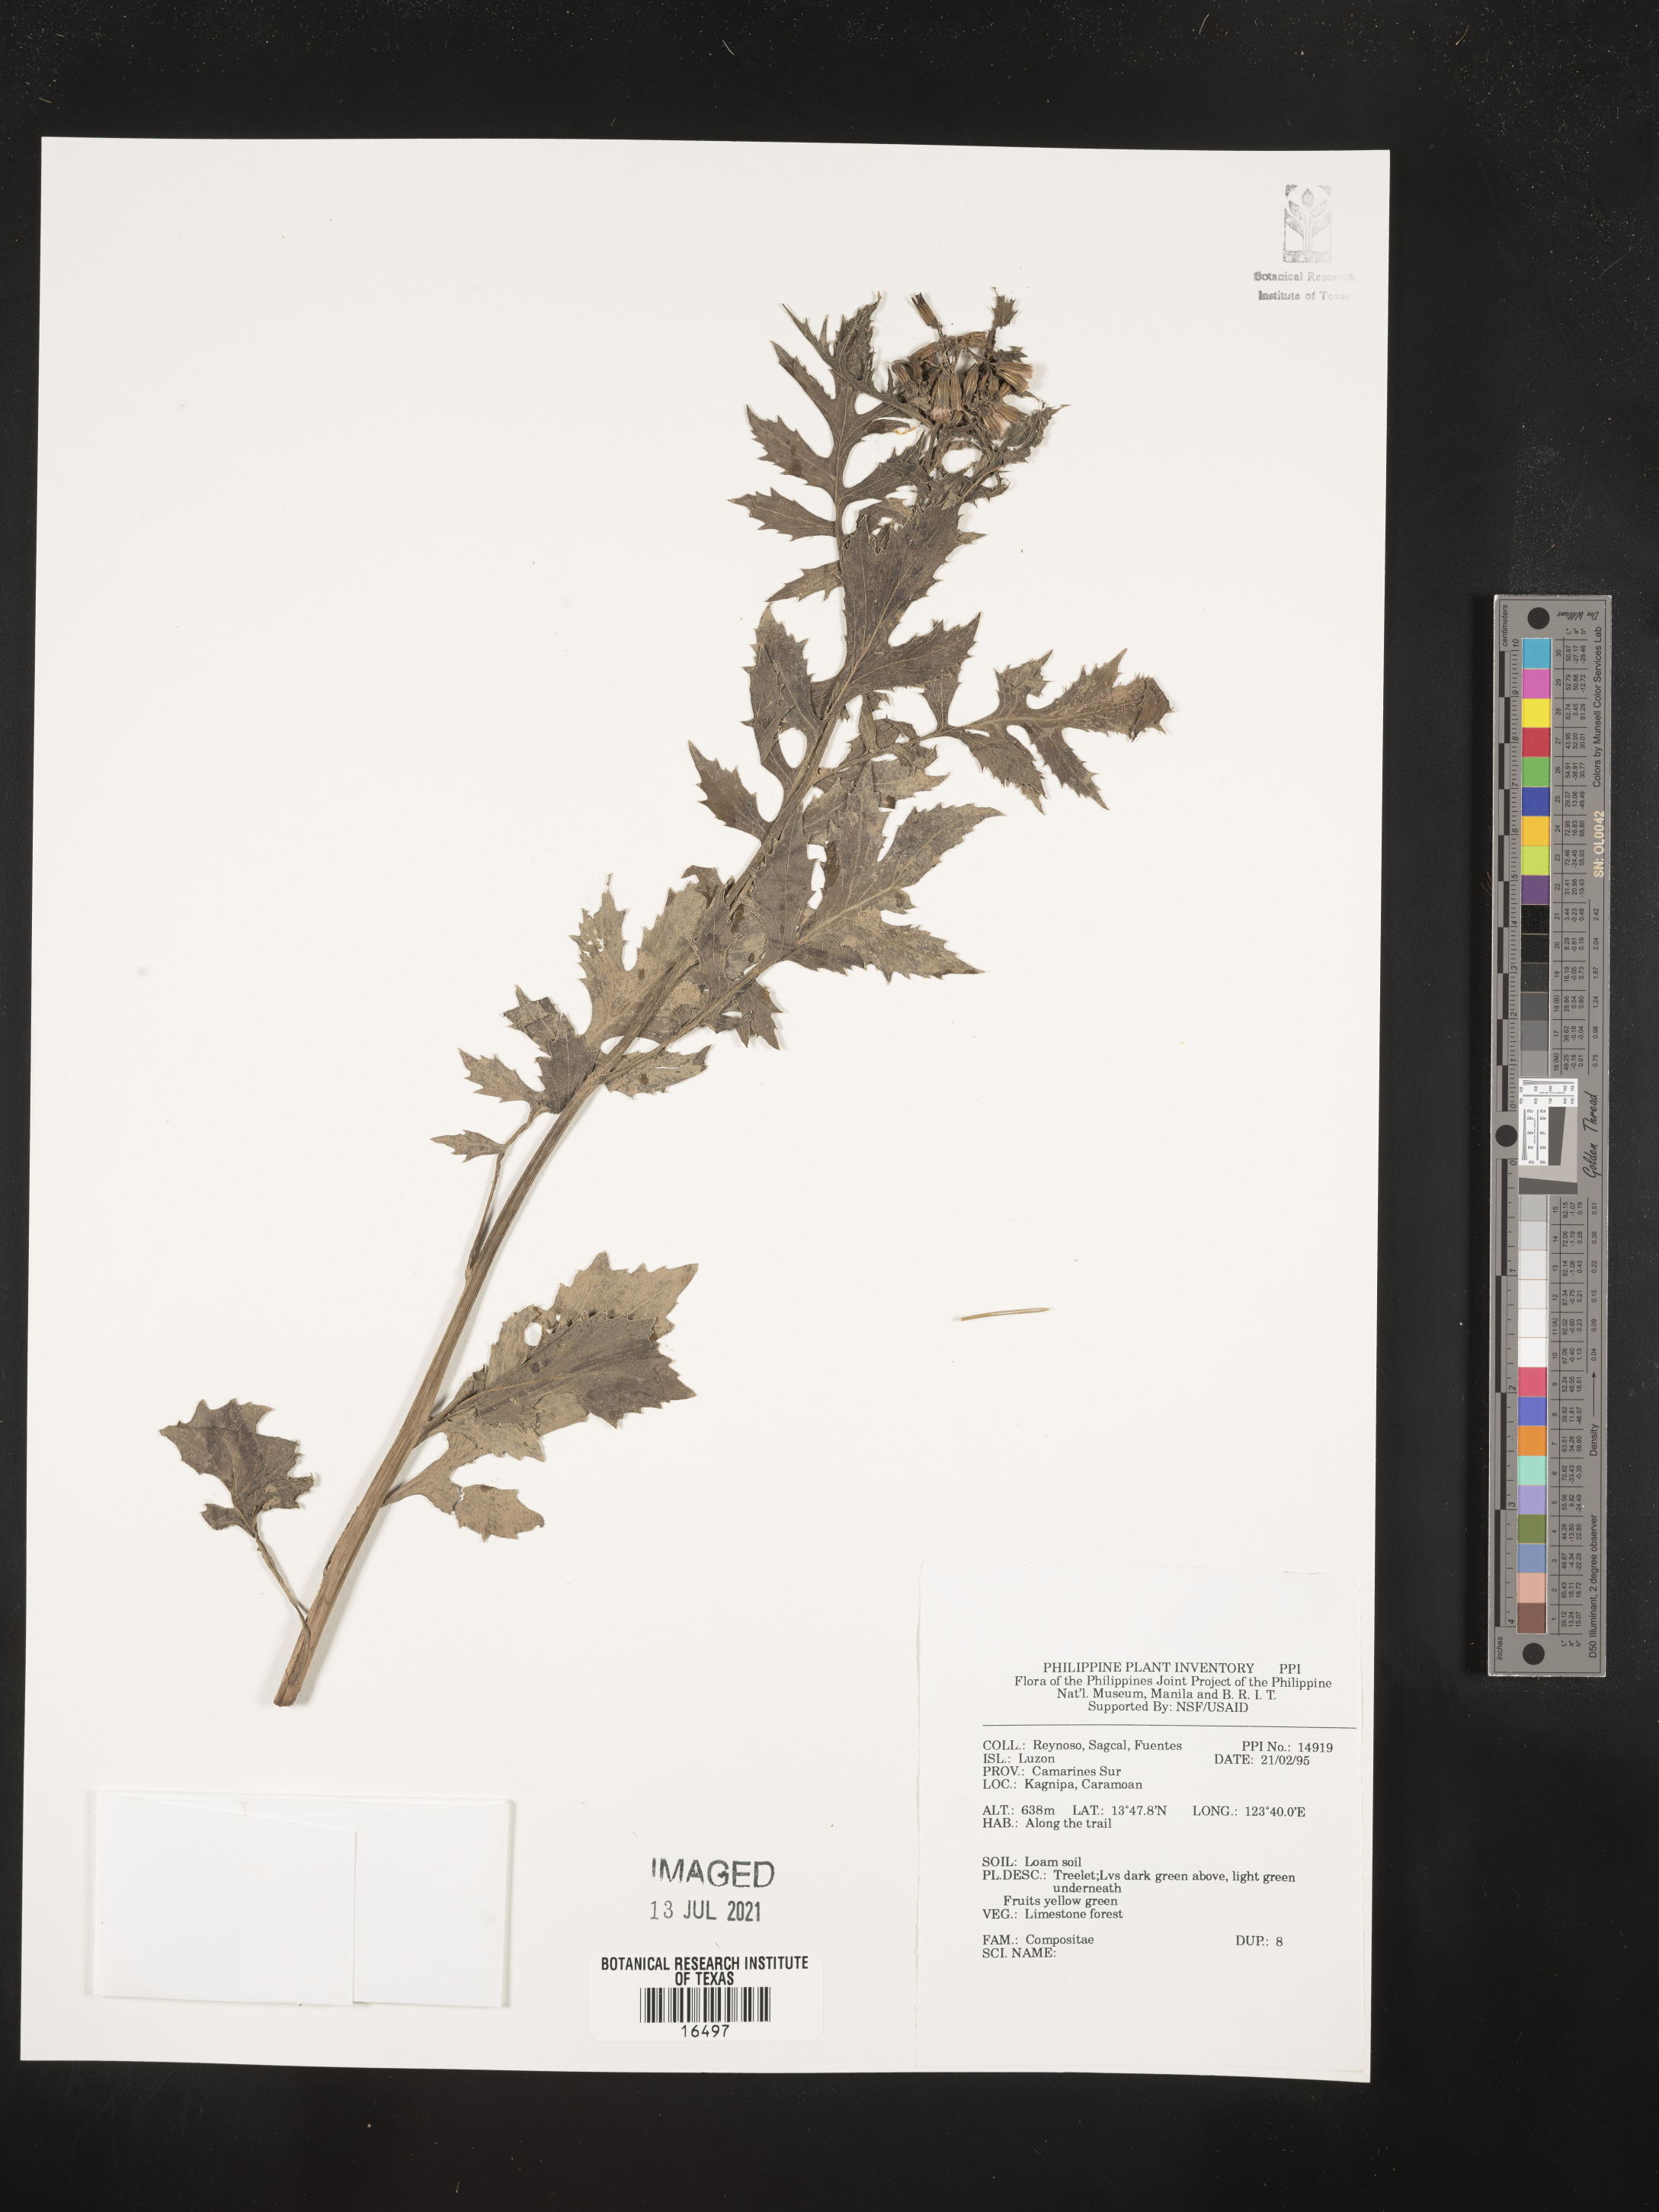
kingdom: Plantae
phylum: Tracheophyta
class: Magnoliopsida
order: Asterales
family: Asteraceae
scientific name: Asteraceae
